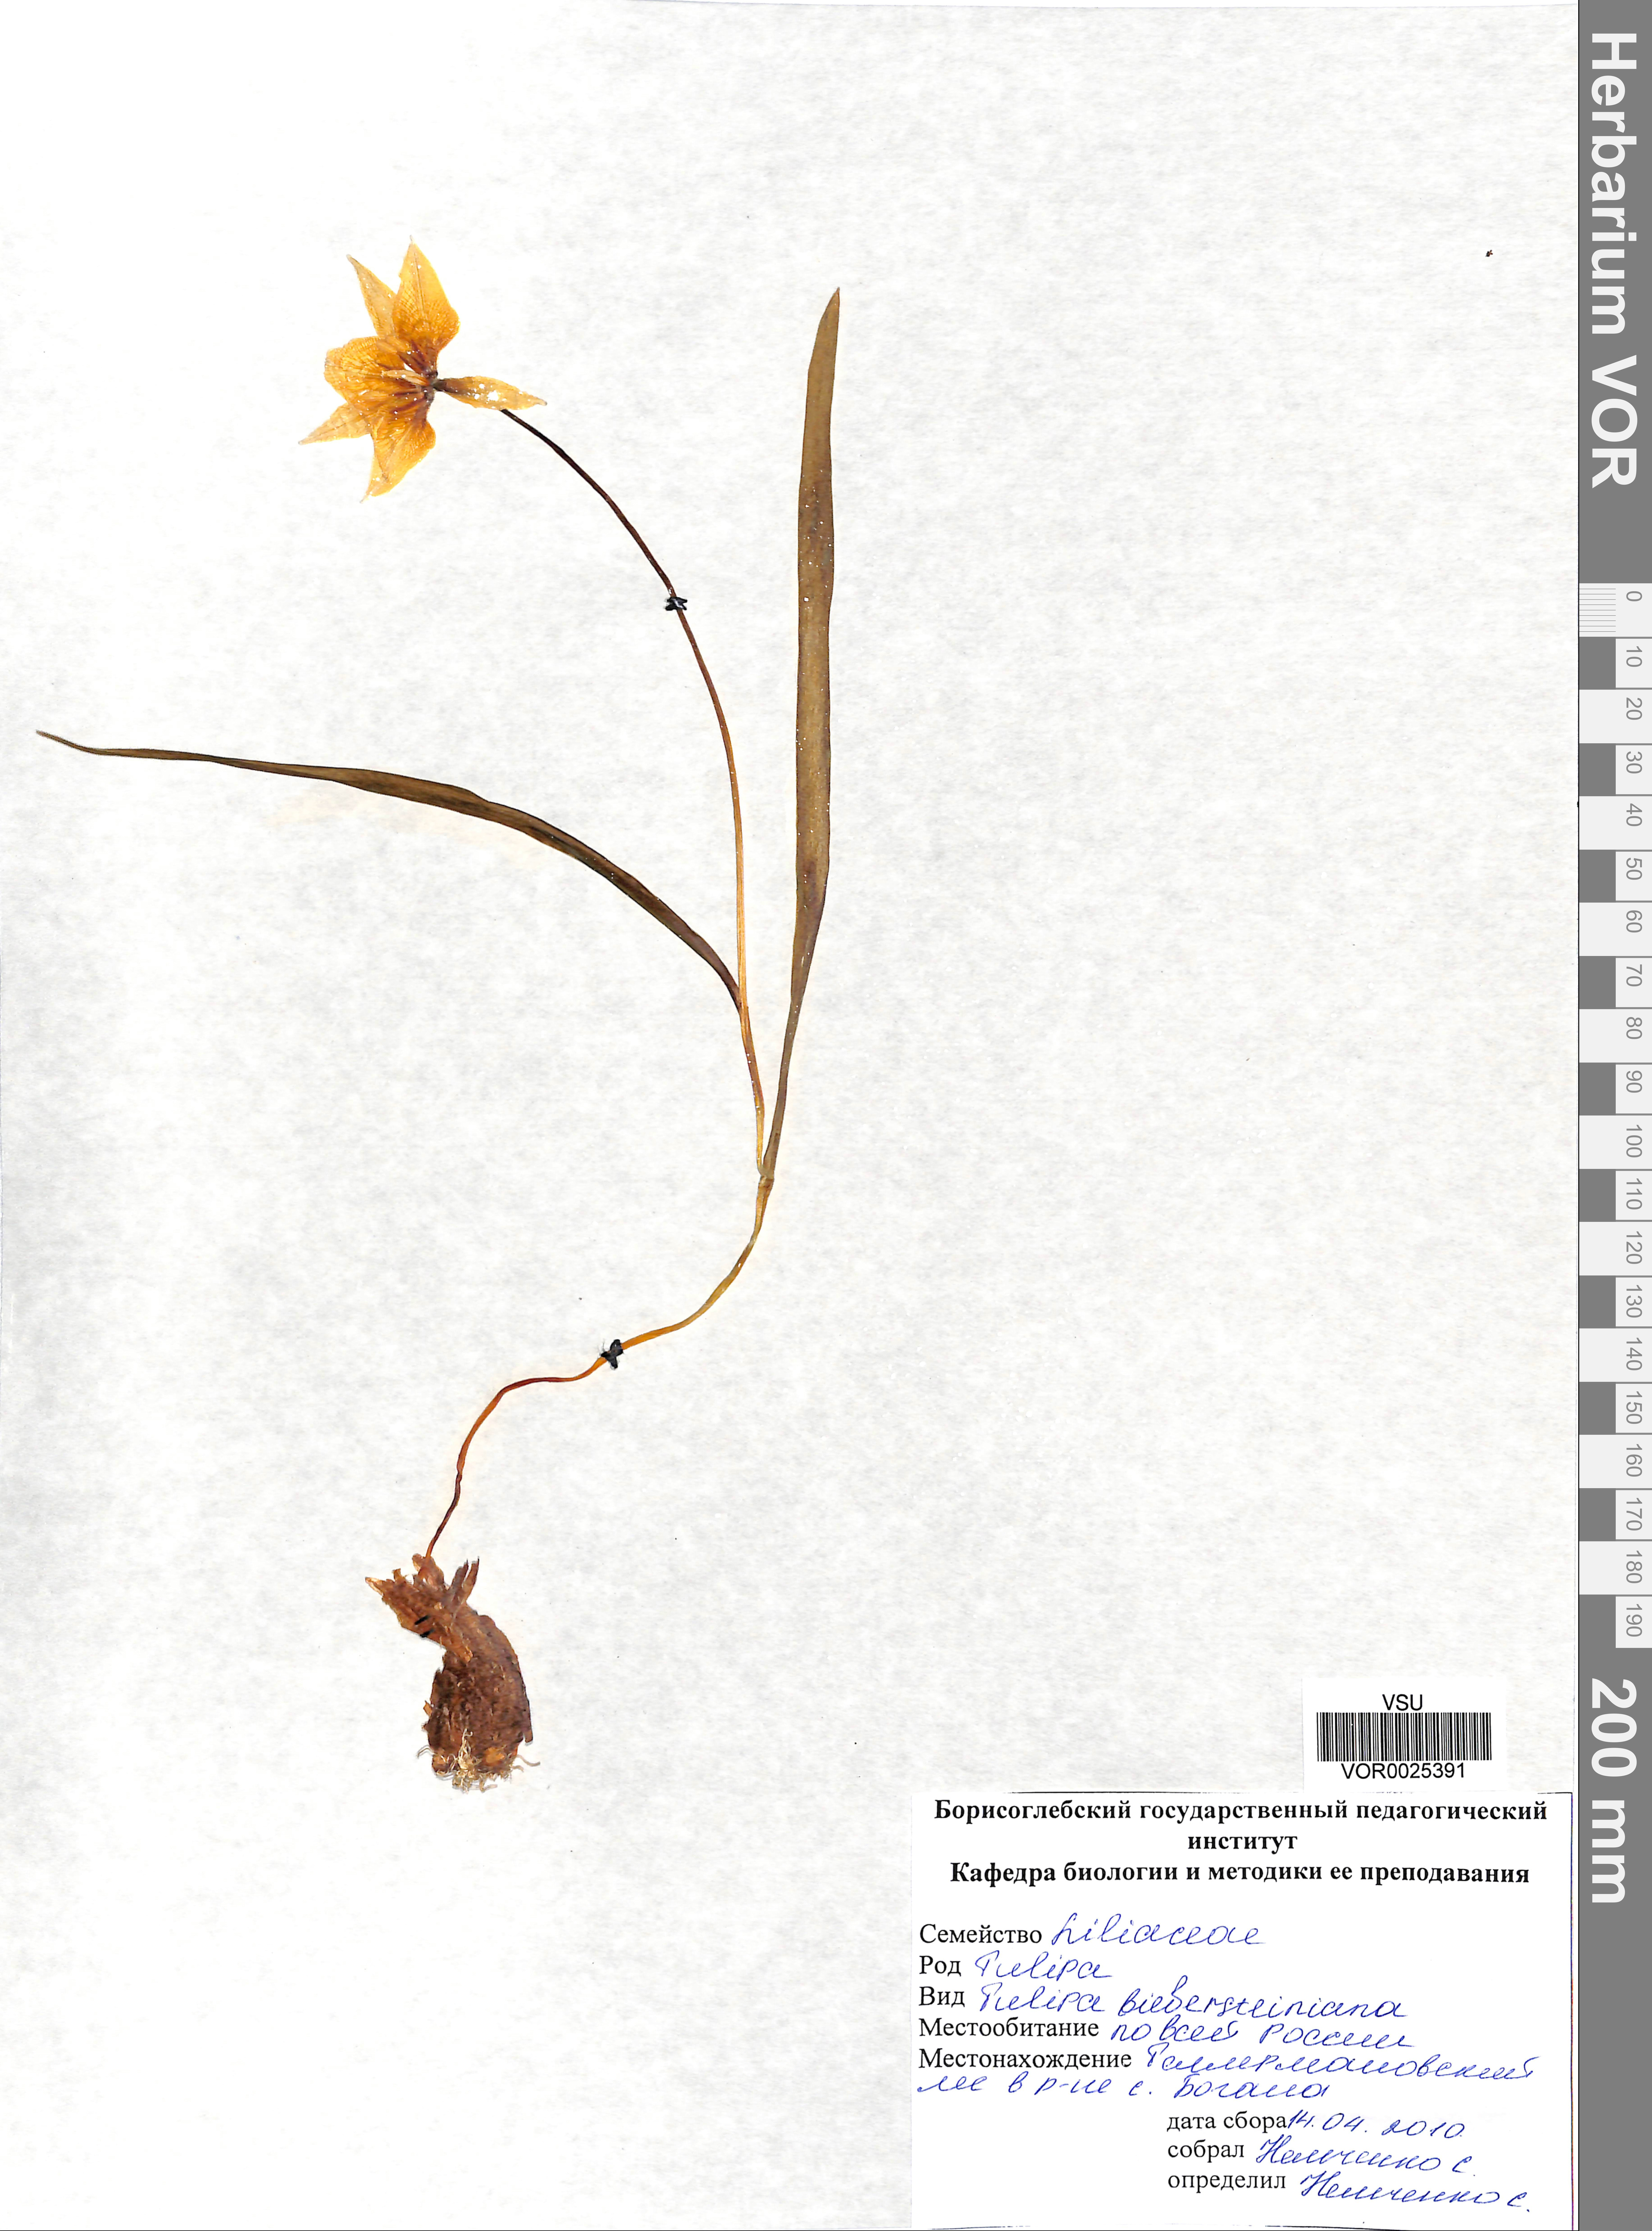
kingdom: Plantae
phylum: Tracheophyta
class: Liliopsida
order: Liliales
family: Liliaceae
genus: Tulipa
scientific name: Tulipa sylvestris
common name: Wild tulip
